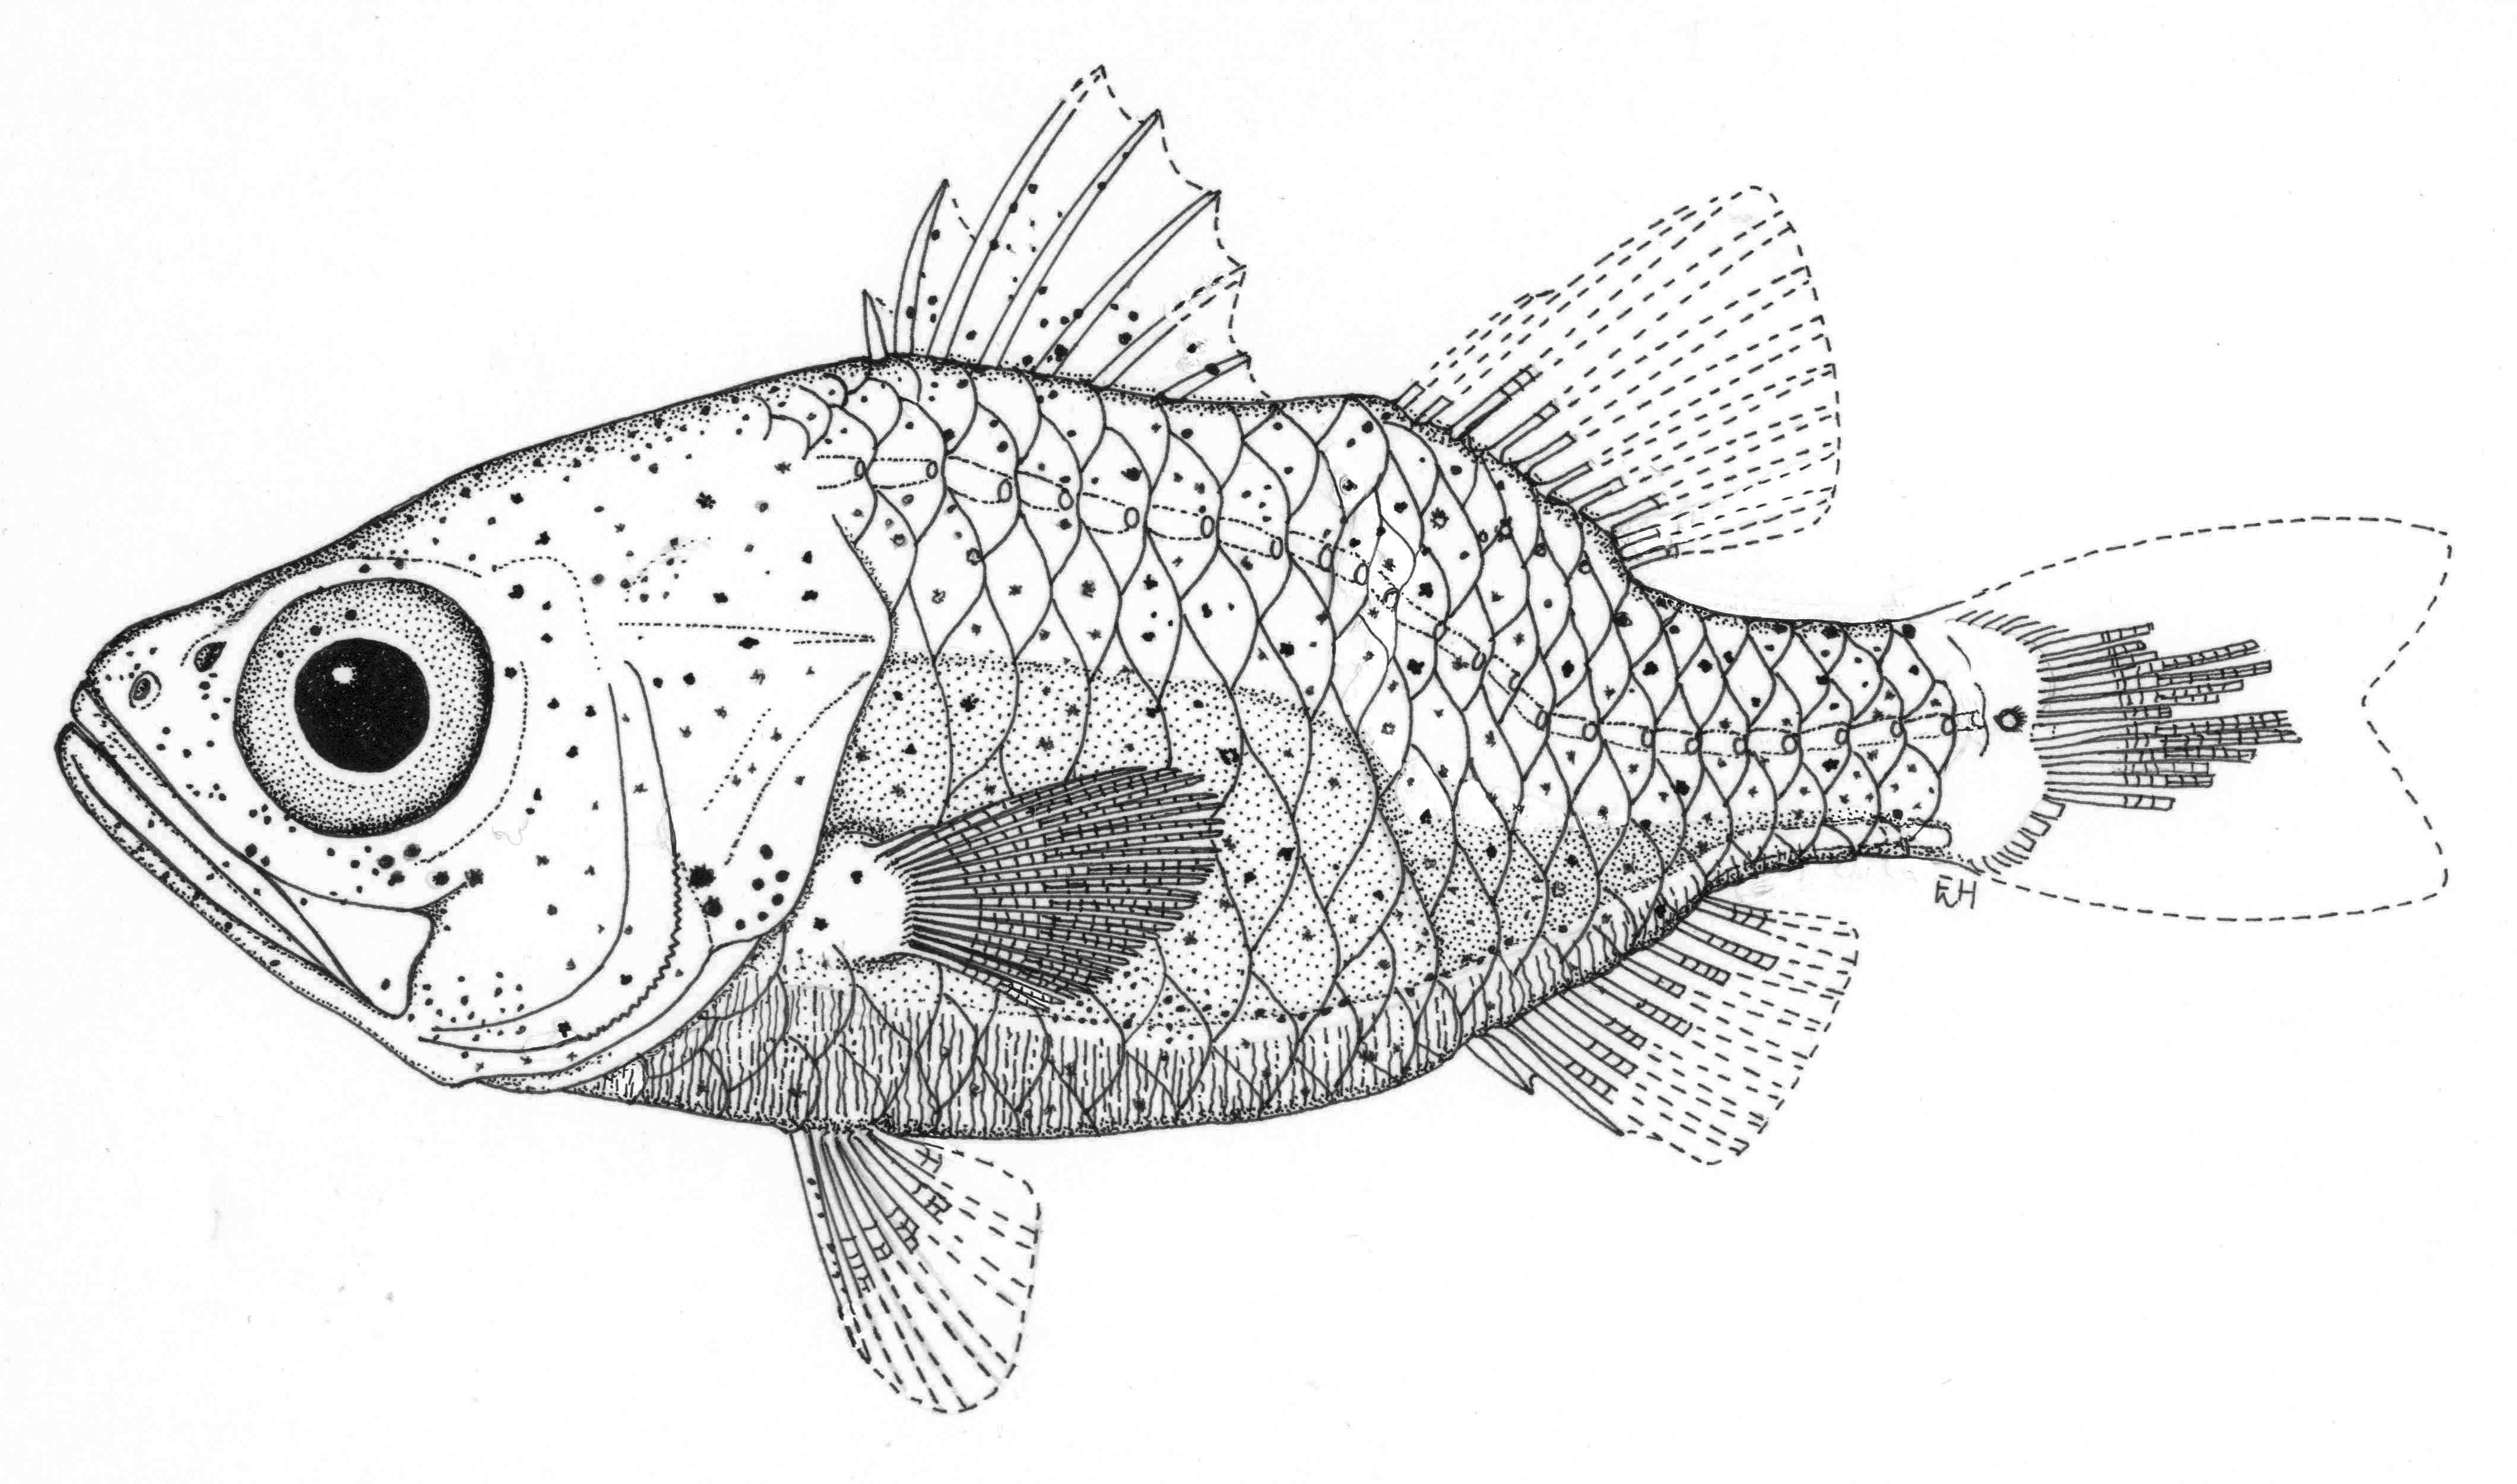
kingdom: Animalia
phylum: Chordata
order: Perciformes
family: Apogonidae
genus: Siphamia
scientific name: Siphamia guttulata
